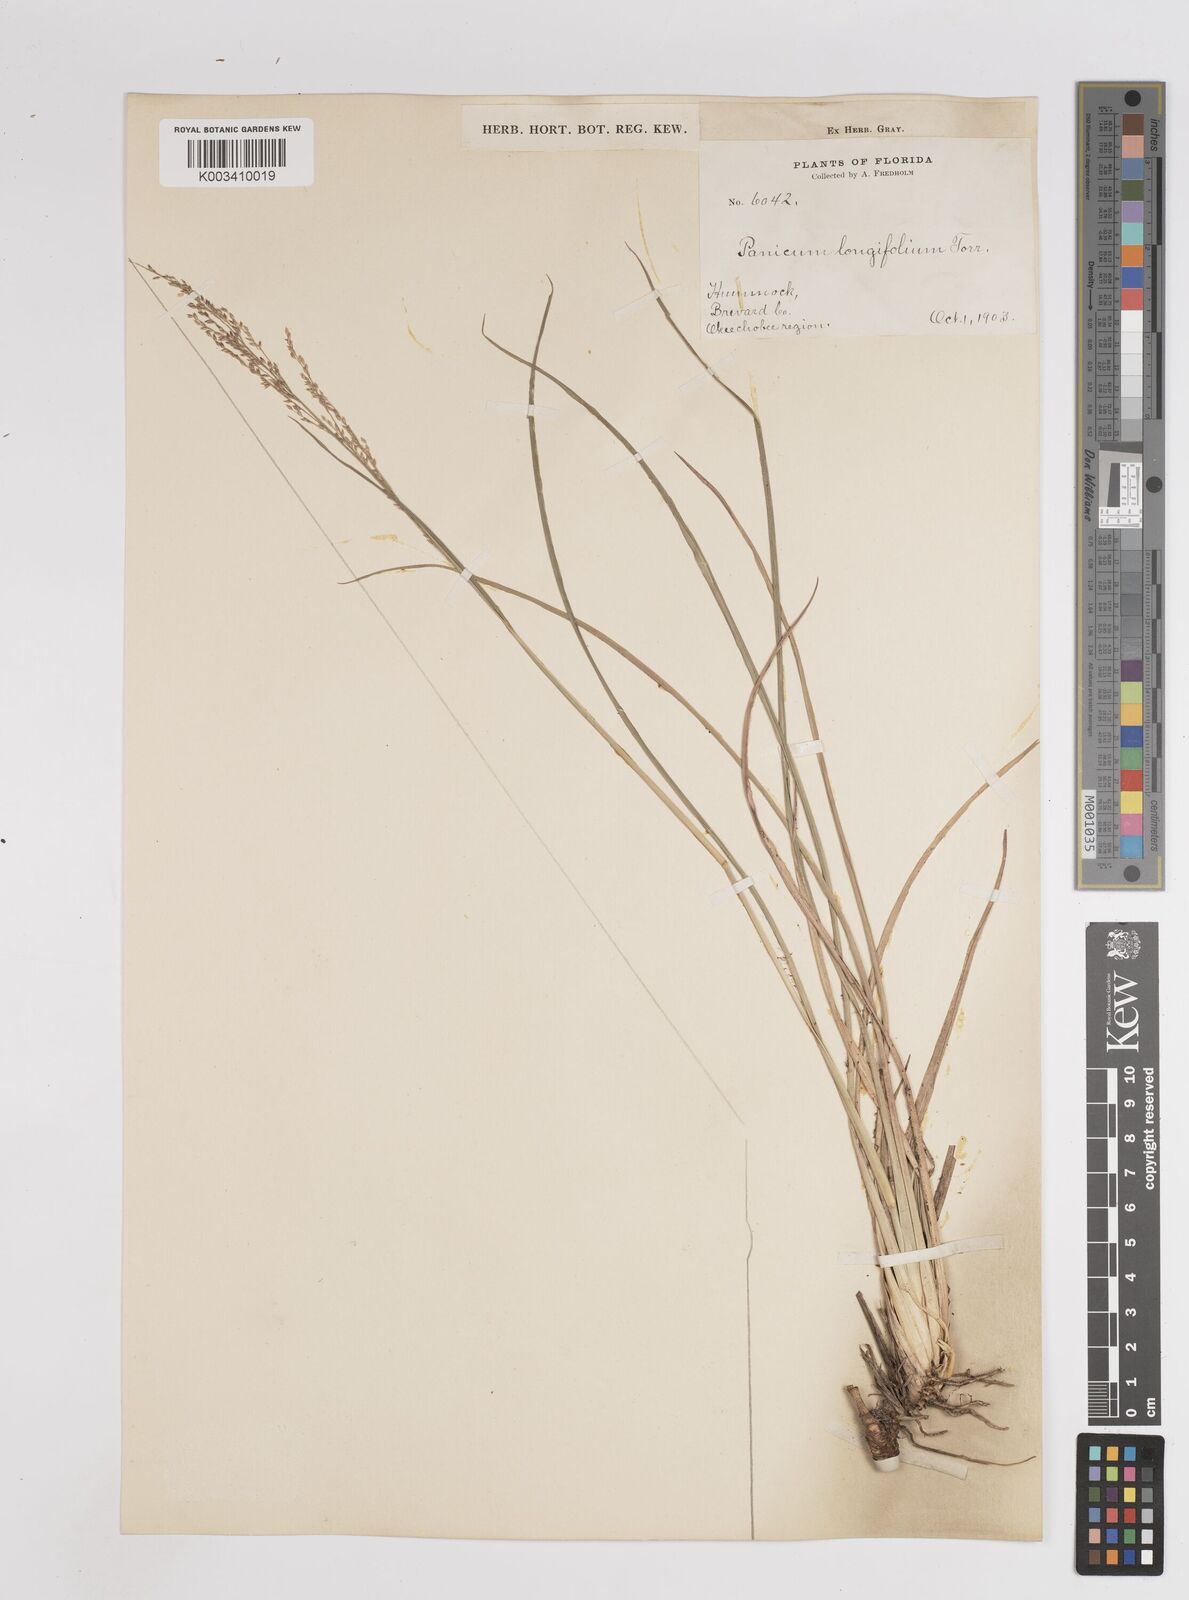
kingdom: Plantae
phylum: Tracheophyta
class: Liliopsida
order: Poales
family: Poaceae
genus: Coleataenia
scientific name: Coleataenia longifolia
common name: Long-leaved panicgrass
